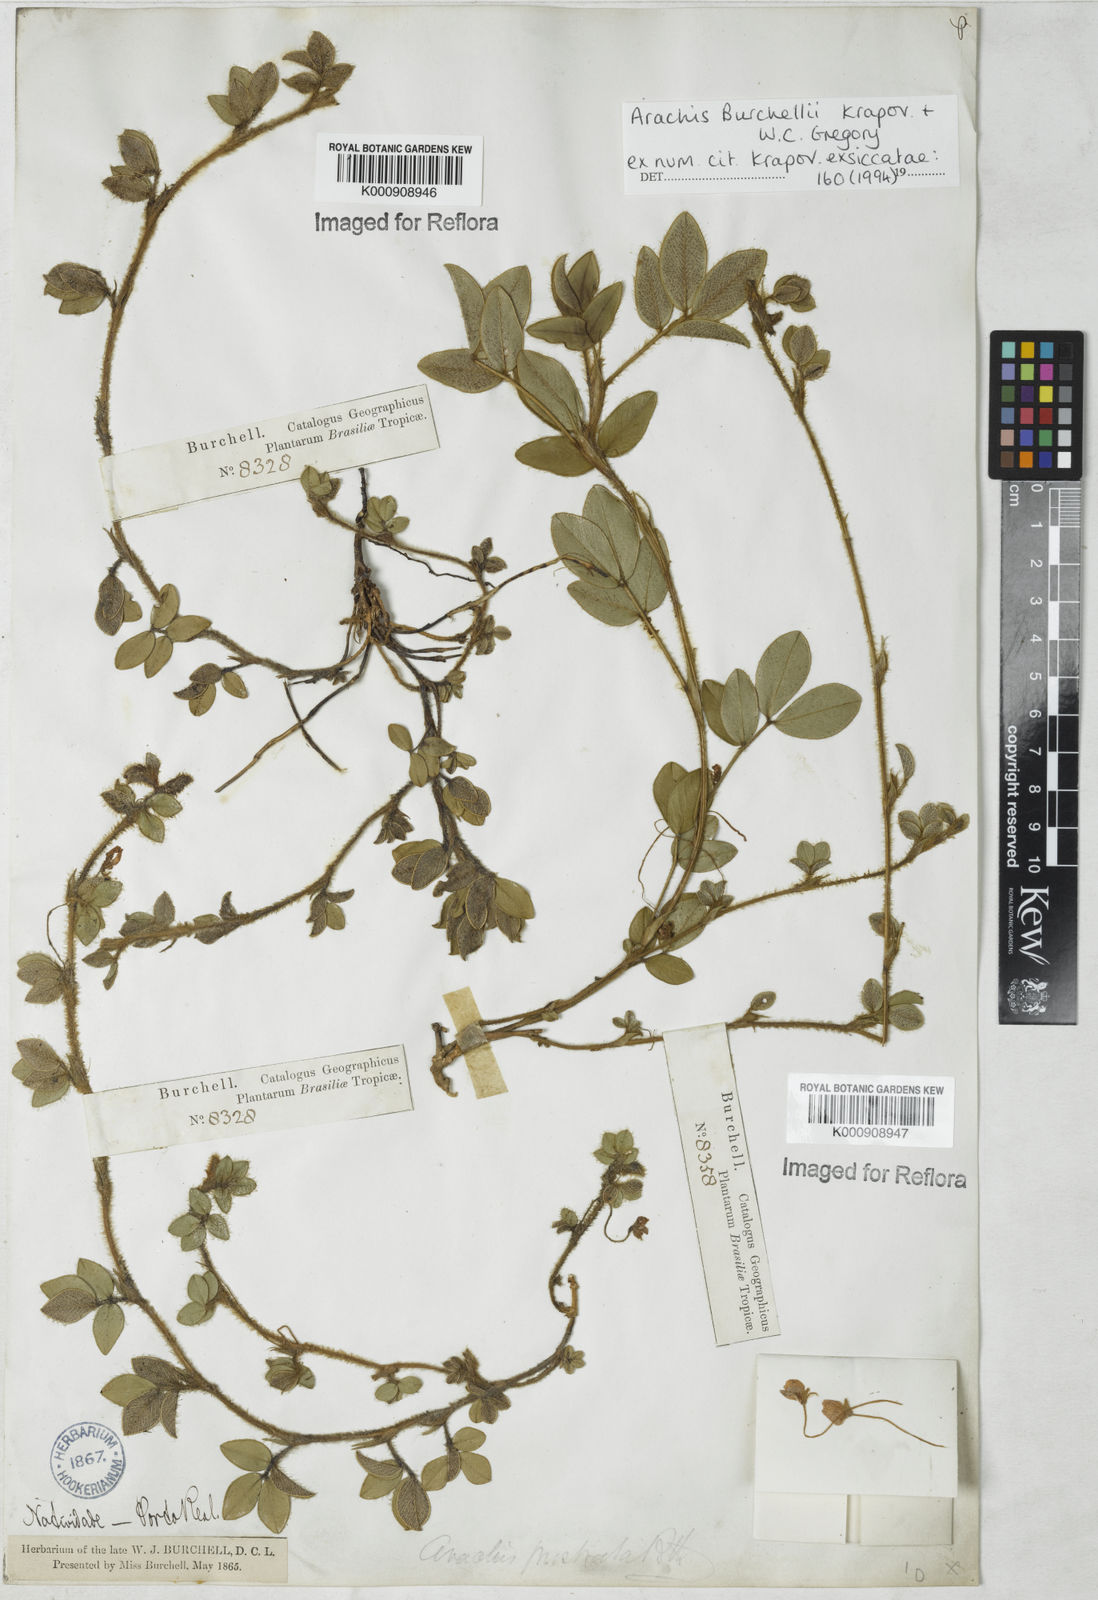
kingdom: Plantae
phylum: Tracheophyta
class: Magnoliopsida
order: Fabales
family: Fabaceae
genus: Arachis
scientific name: Arachis burchellii
